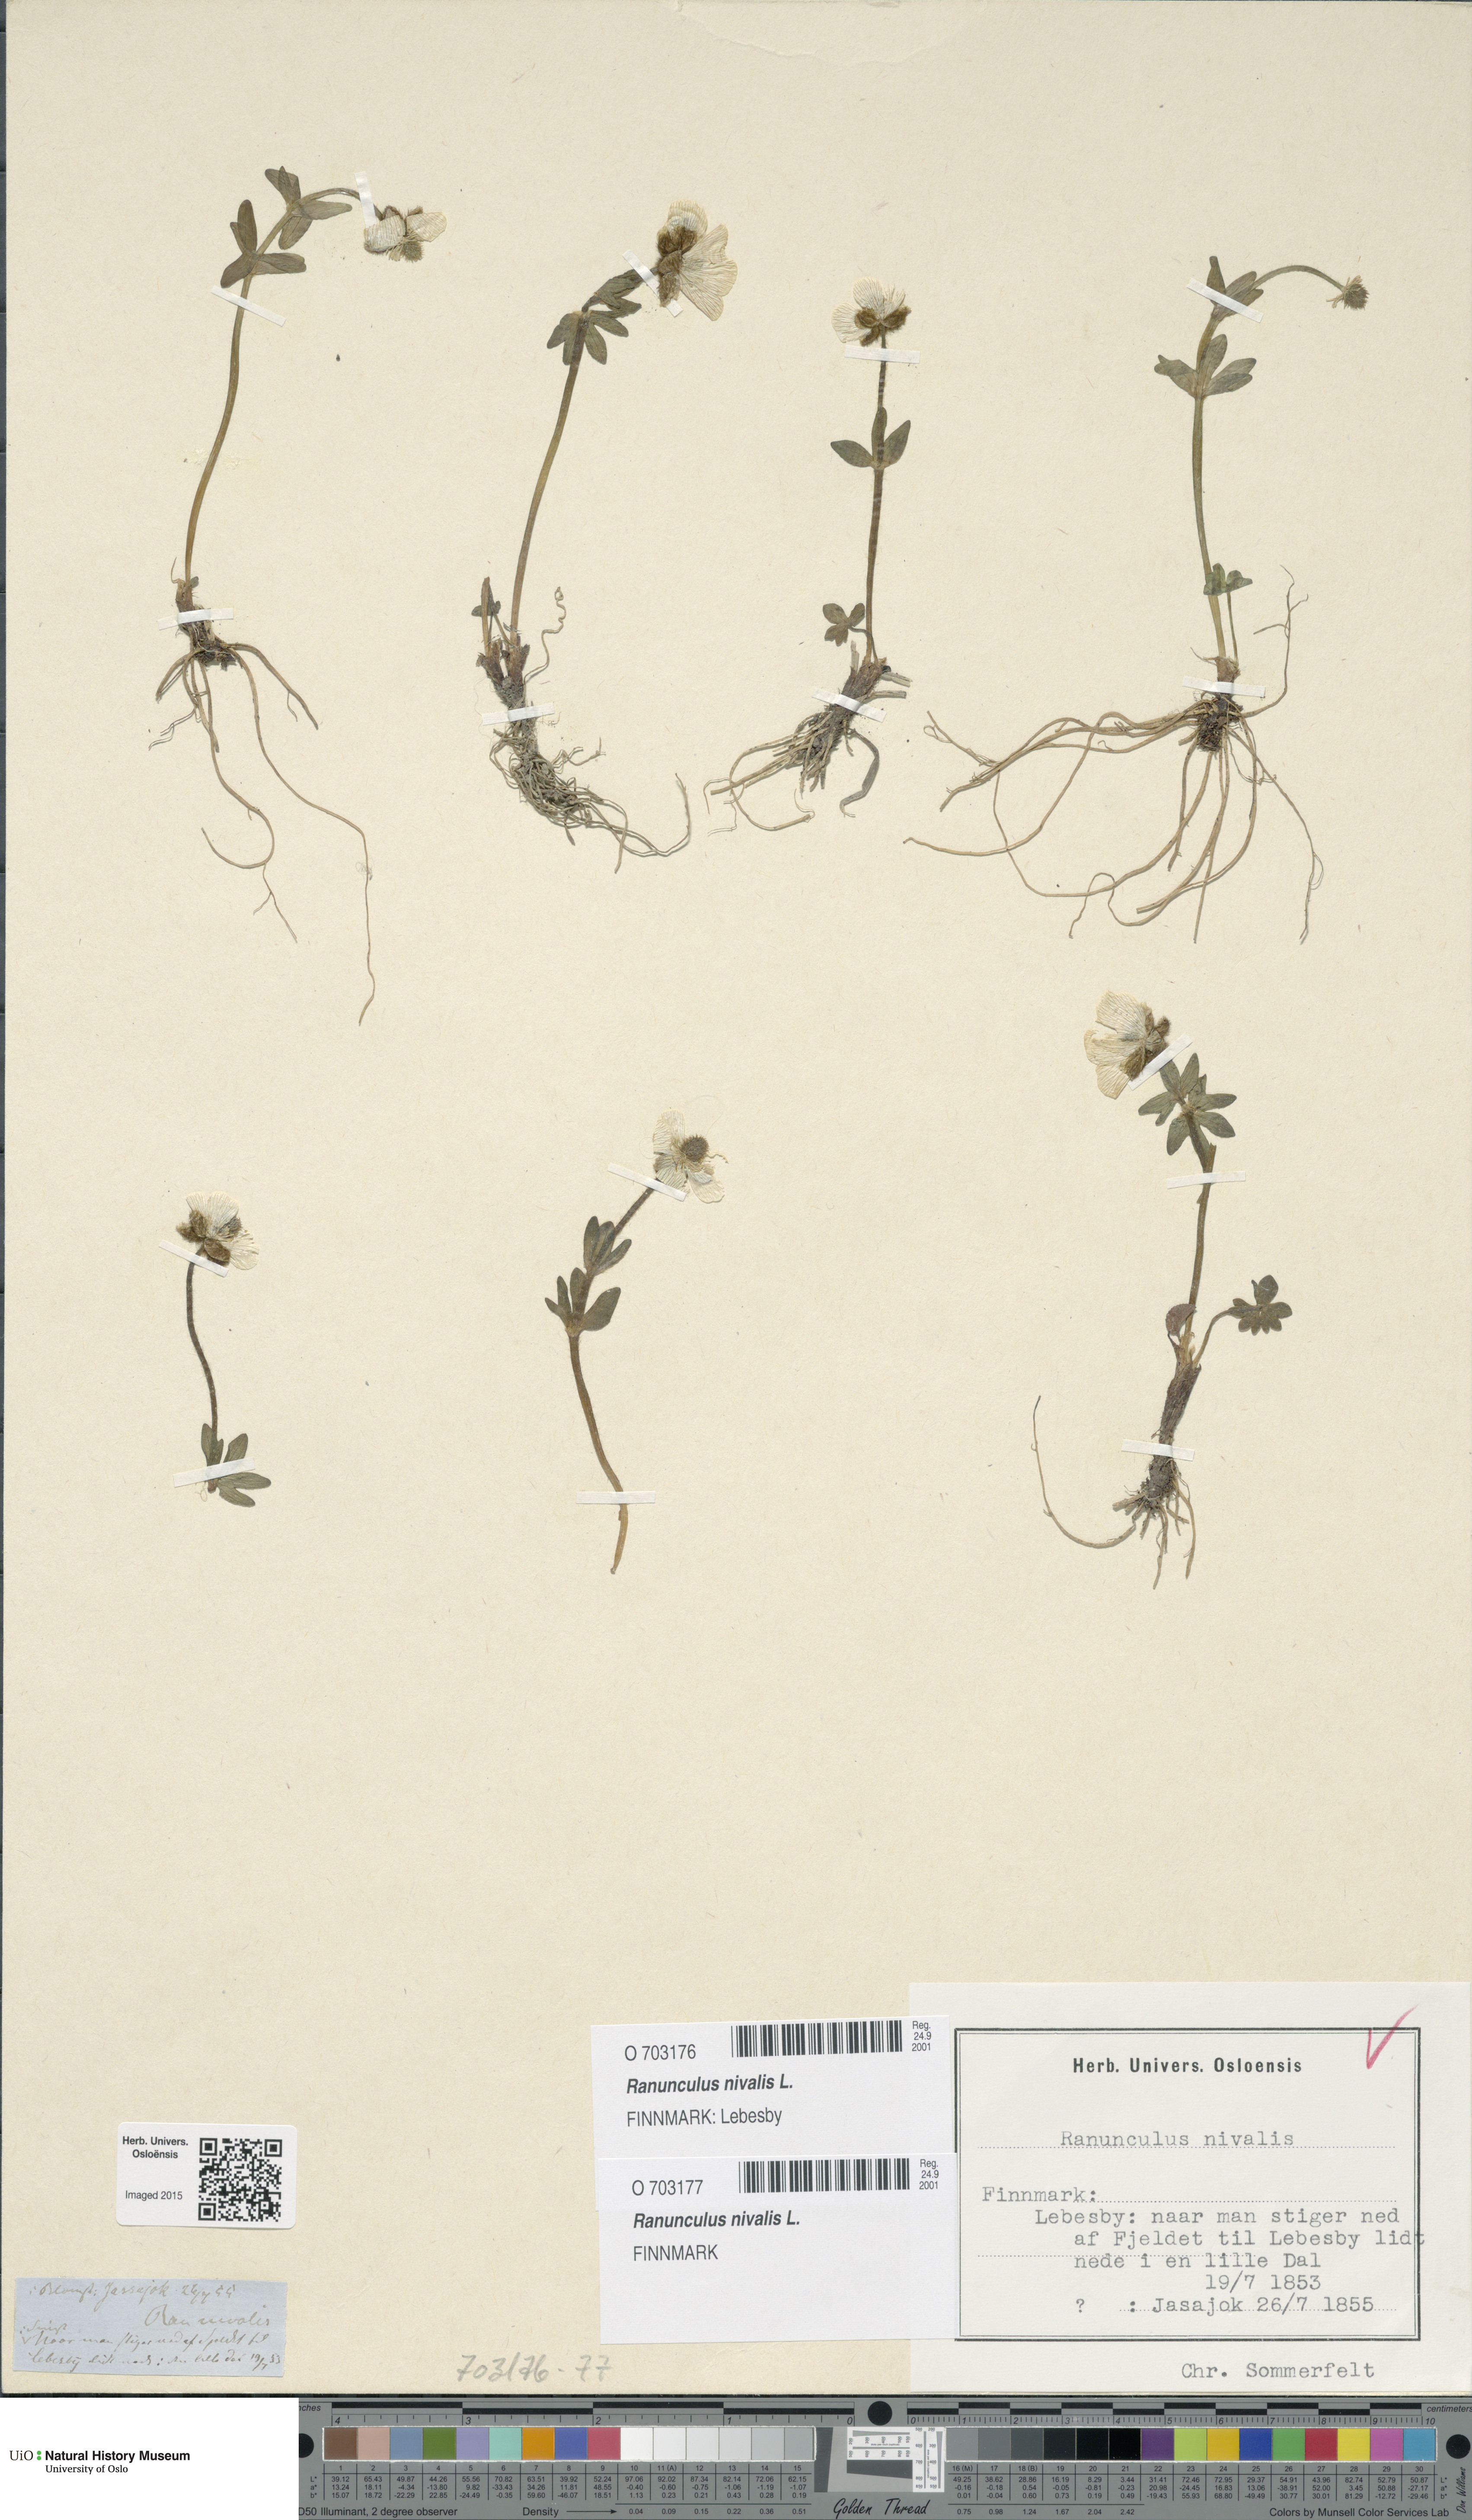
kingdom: Plantae
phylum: Tracheophyta
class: Magnoliopsida
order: Ranunculales
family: Ranunculaceae
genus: Ranunculus
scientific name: Ranunculus nivalis
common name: Snow buttercup
